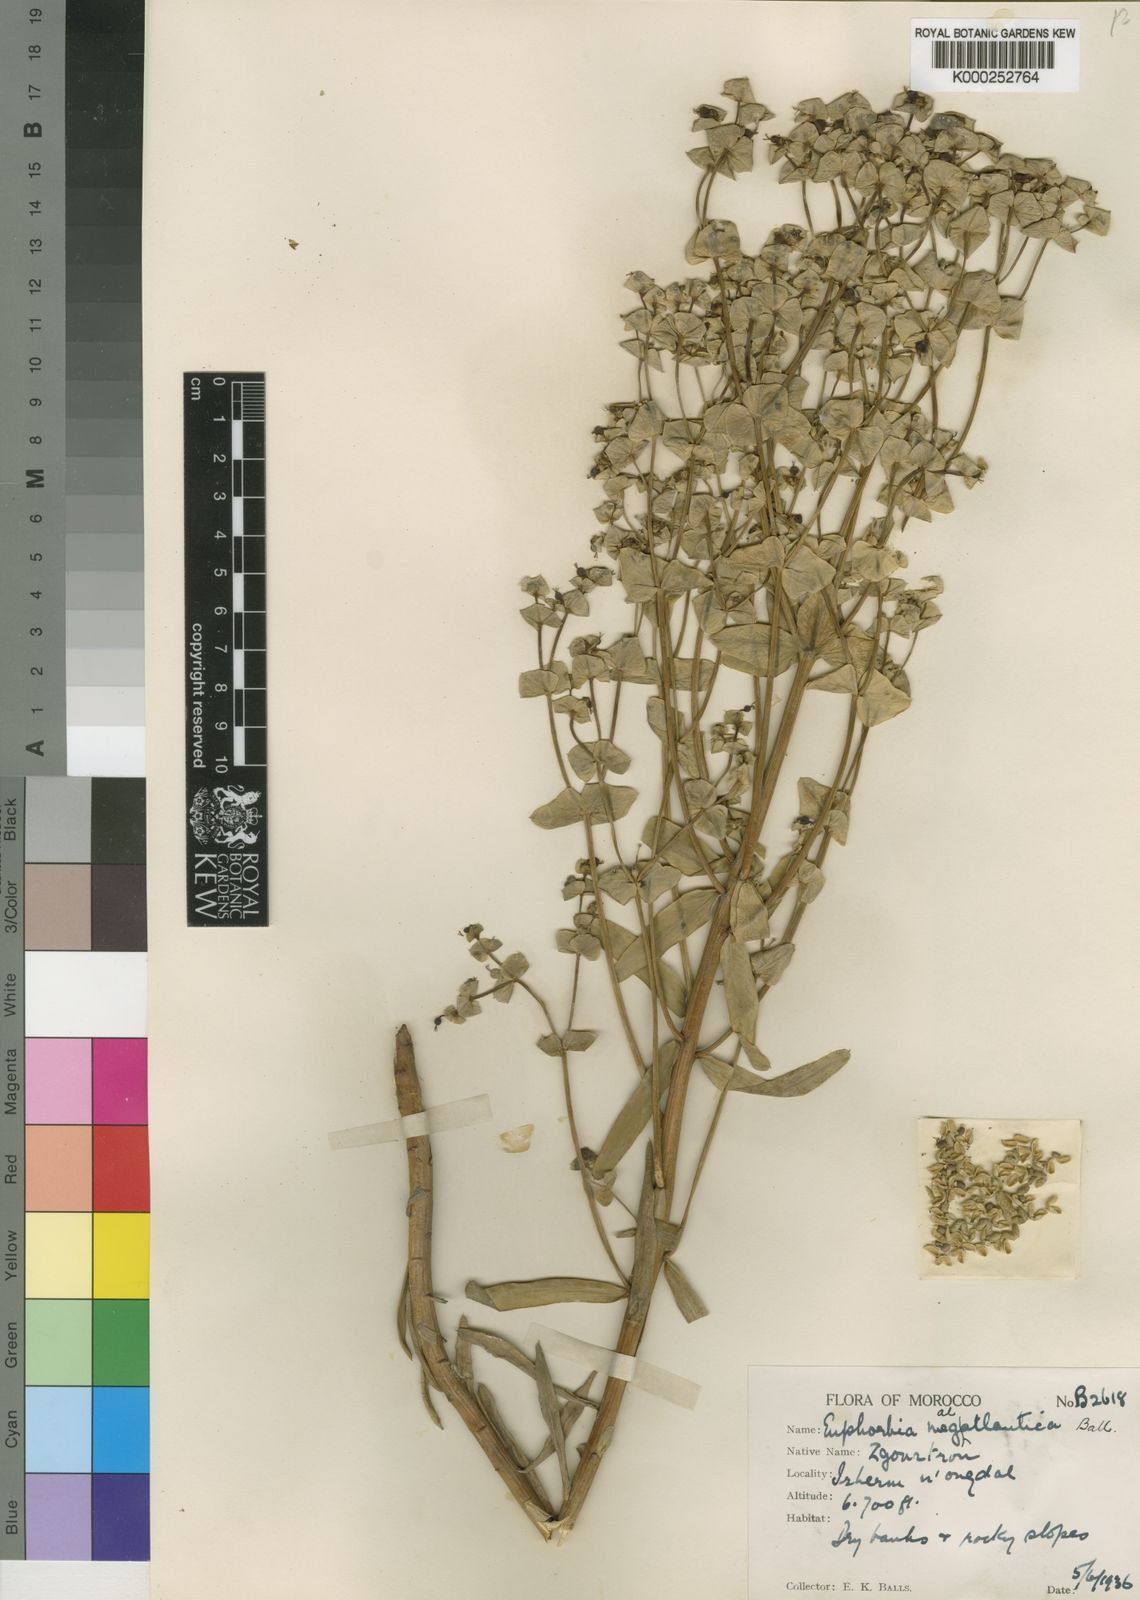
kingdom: Plantae
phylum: Tracheophyta
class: Magnoliopsida
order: Malpighiales
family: Euphorbiaceae
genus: Euphorbia
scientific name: Euphorbia megalatlantica
